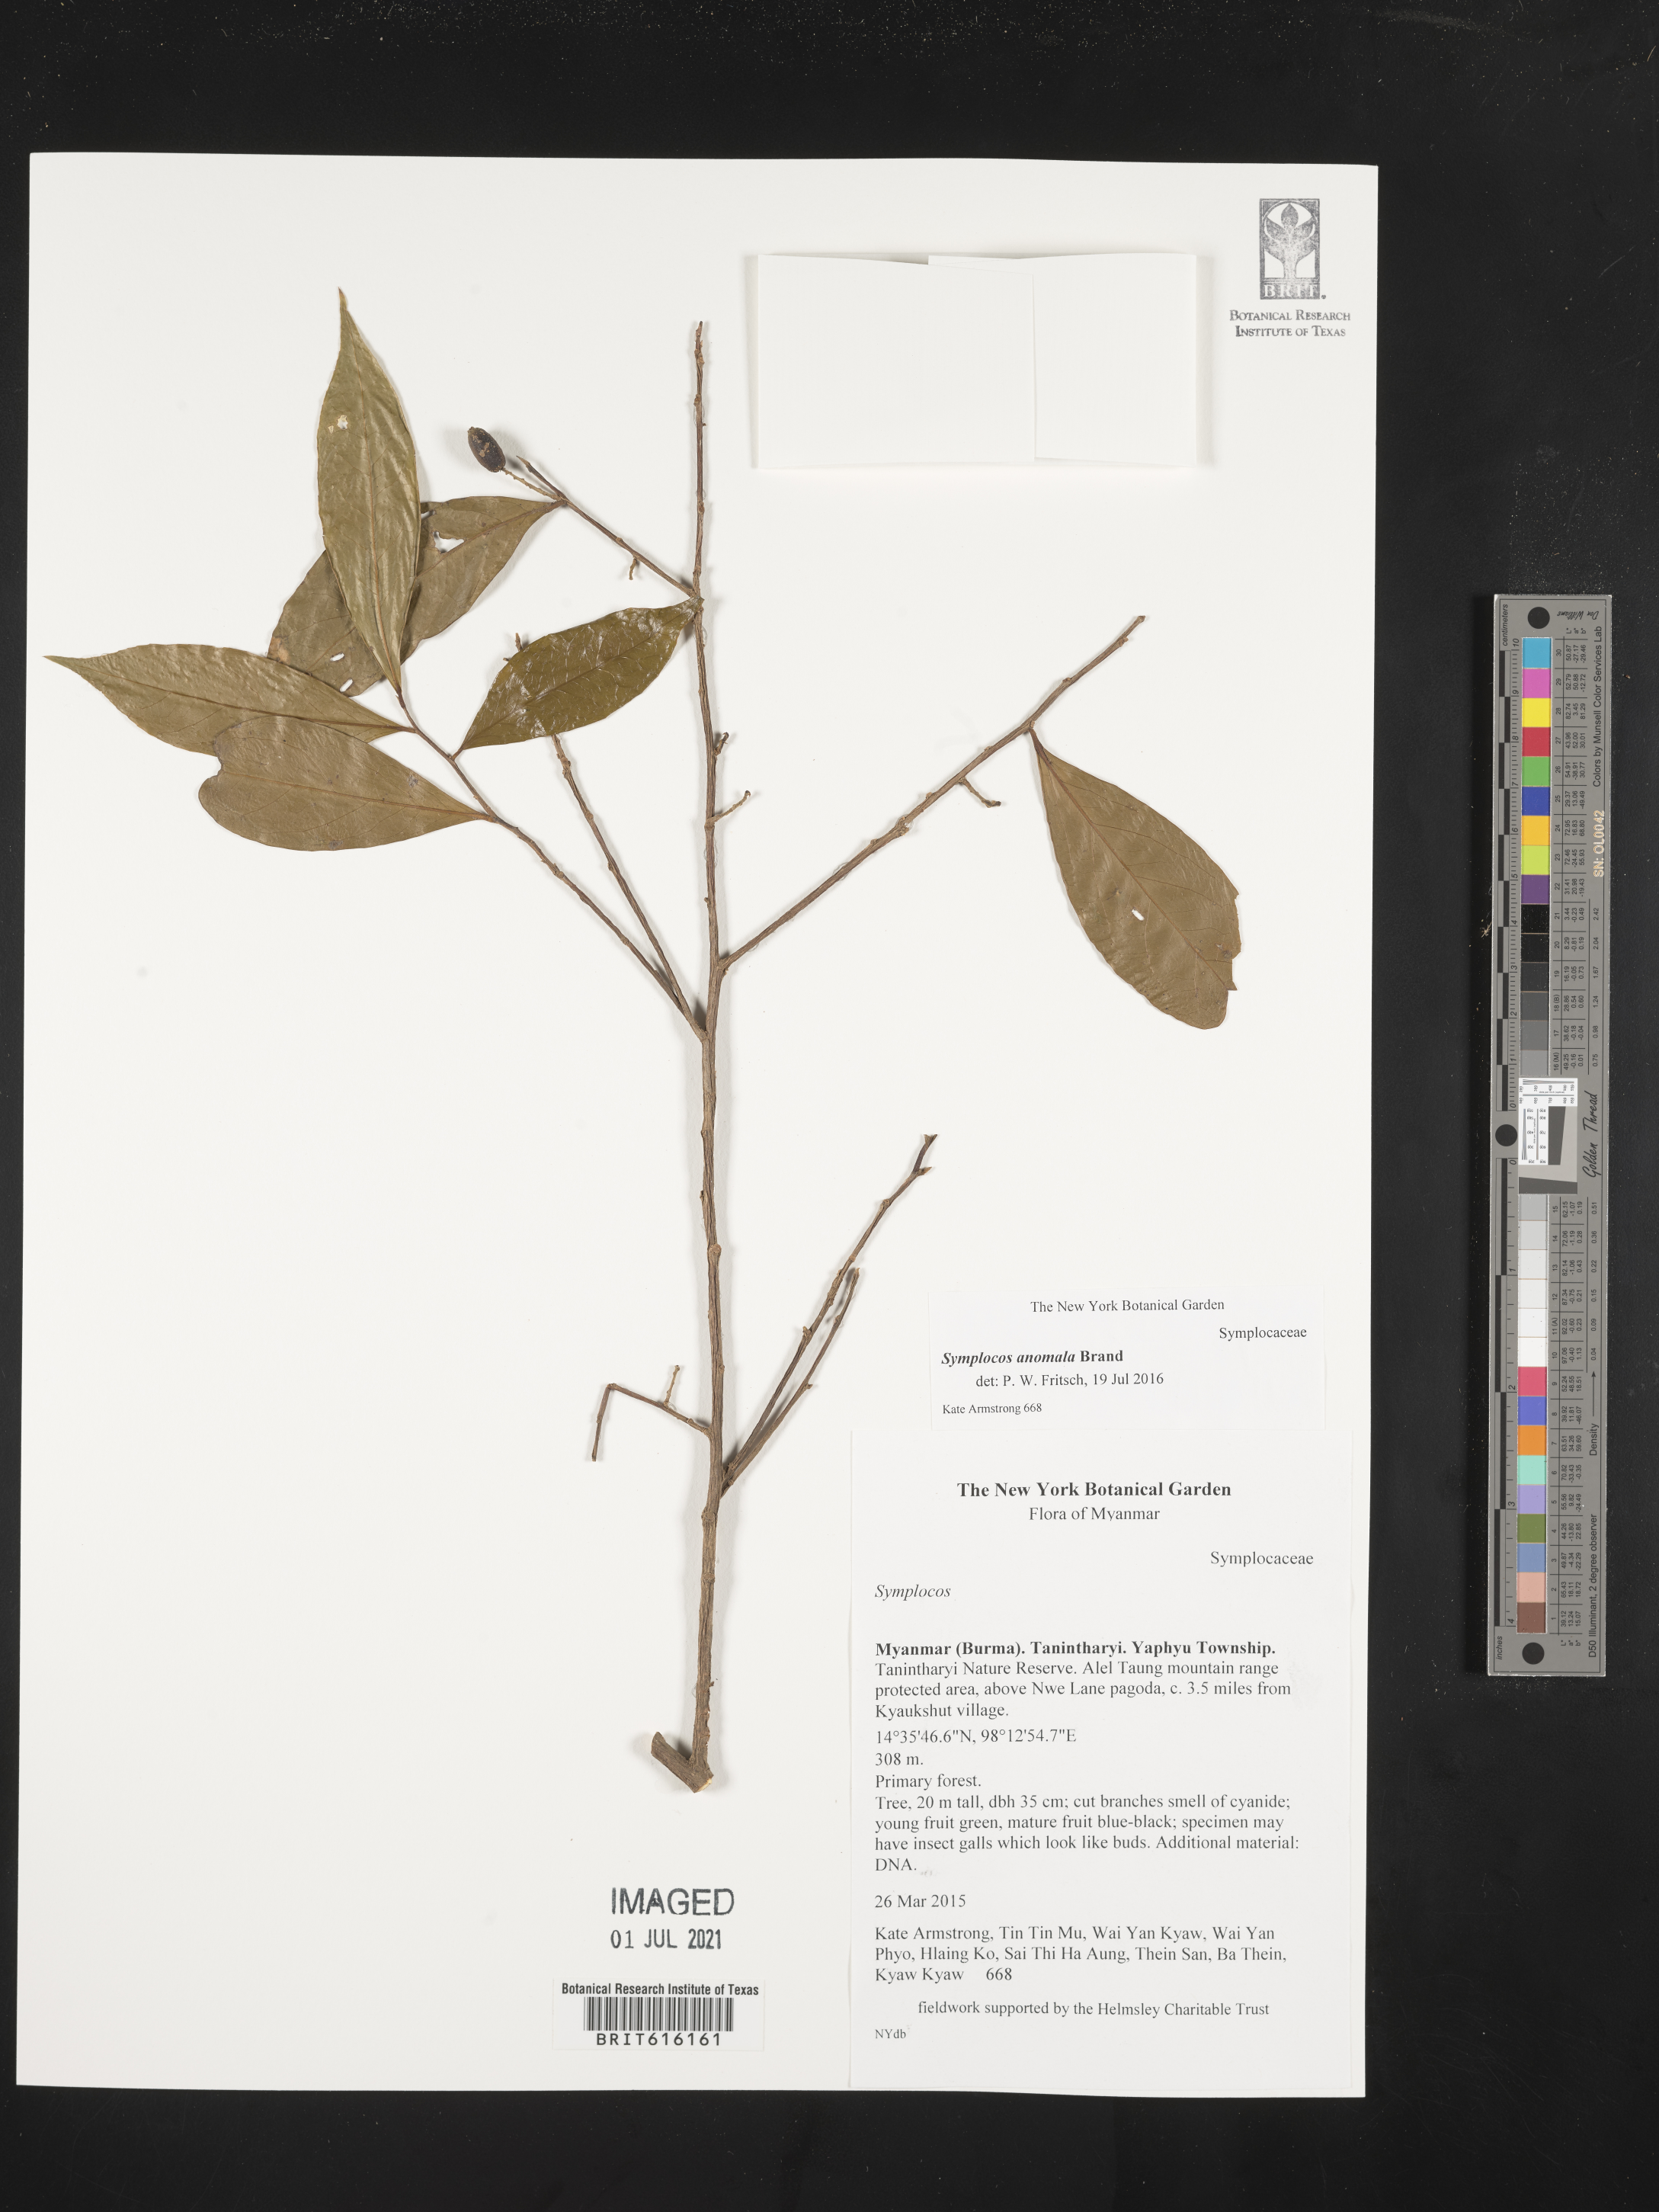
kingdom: Plantae
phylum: Tracheophyta
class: Magnoliopsida
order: Ericales
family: Symplocaceae
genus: Symplocos
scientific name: Symplocos
